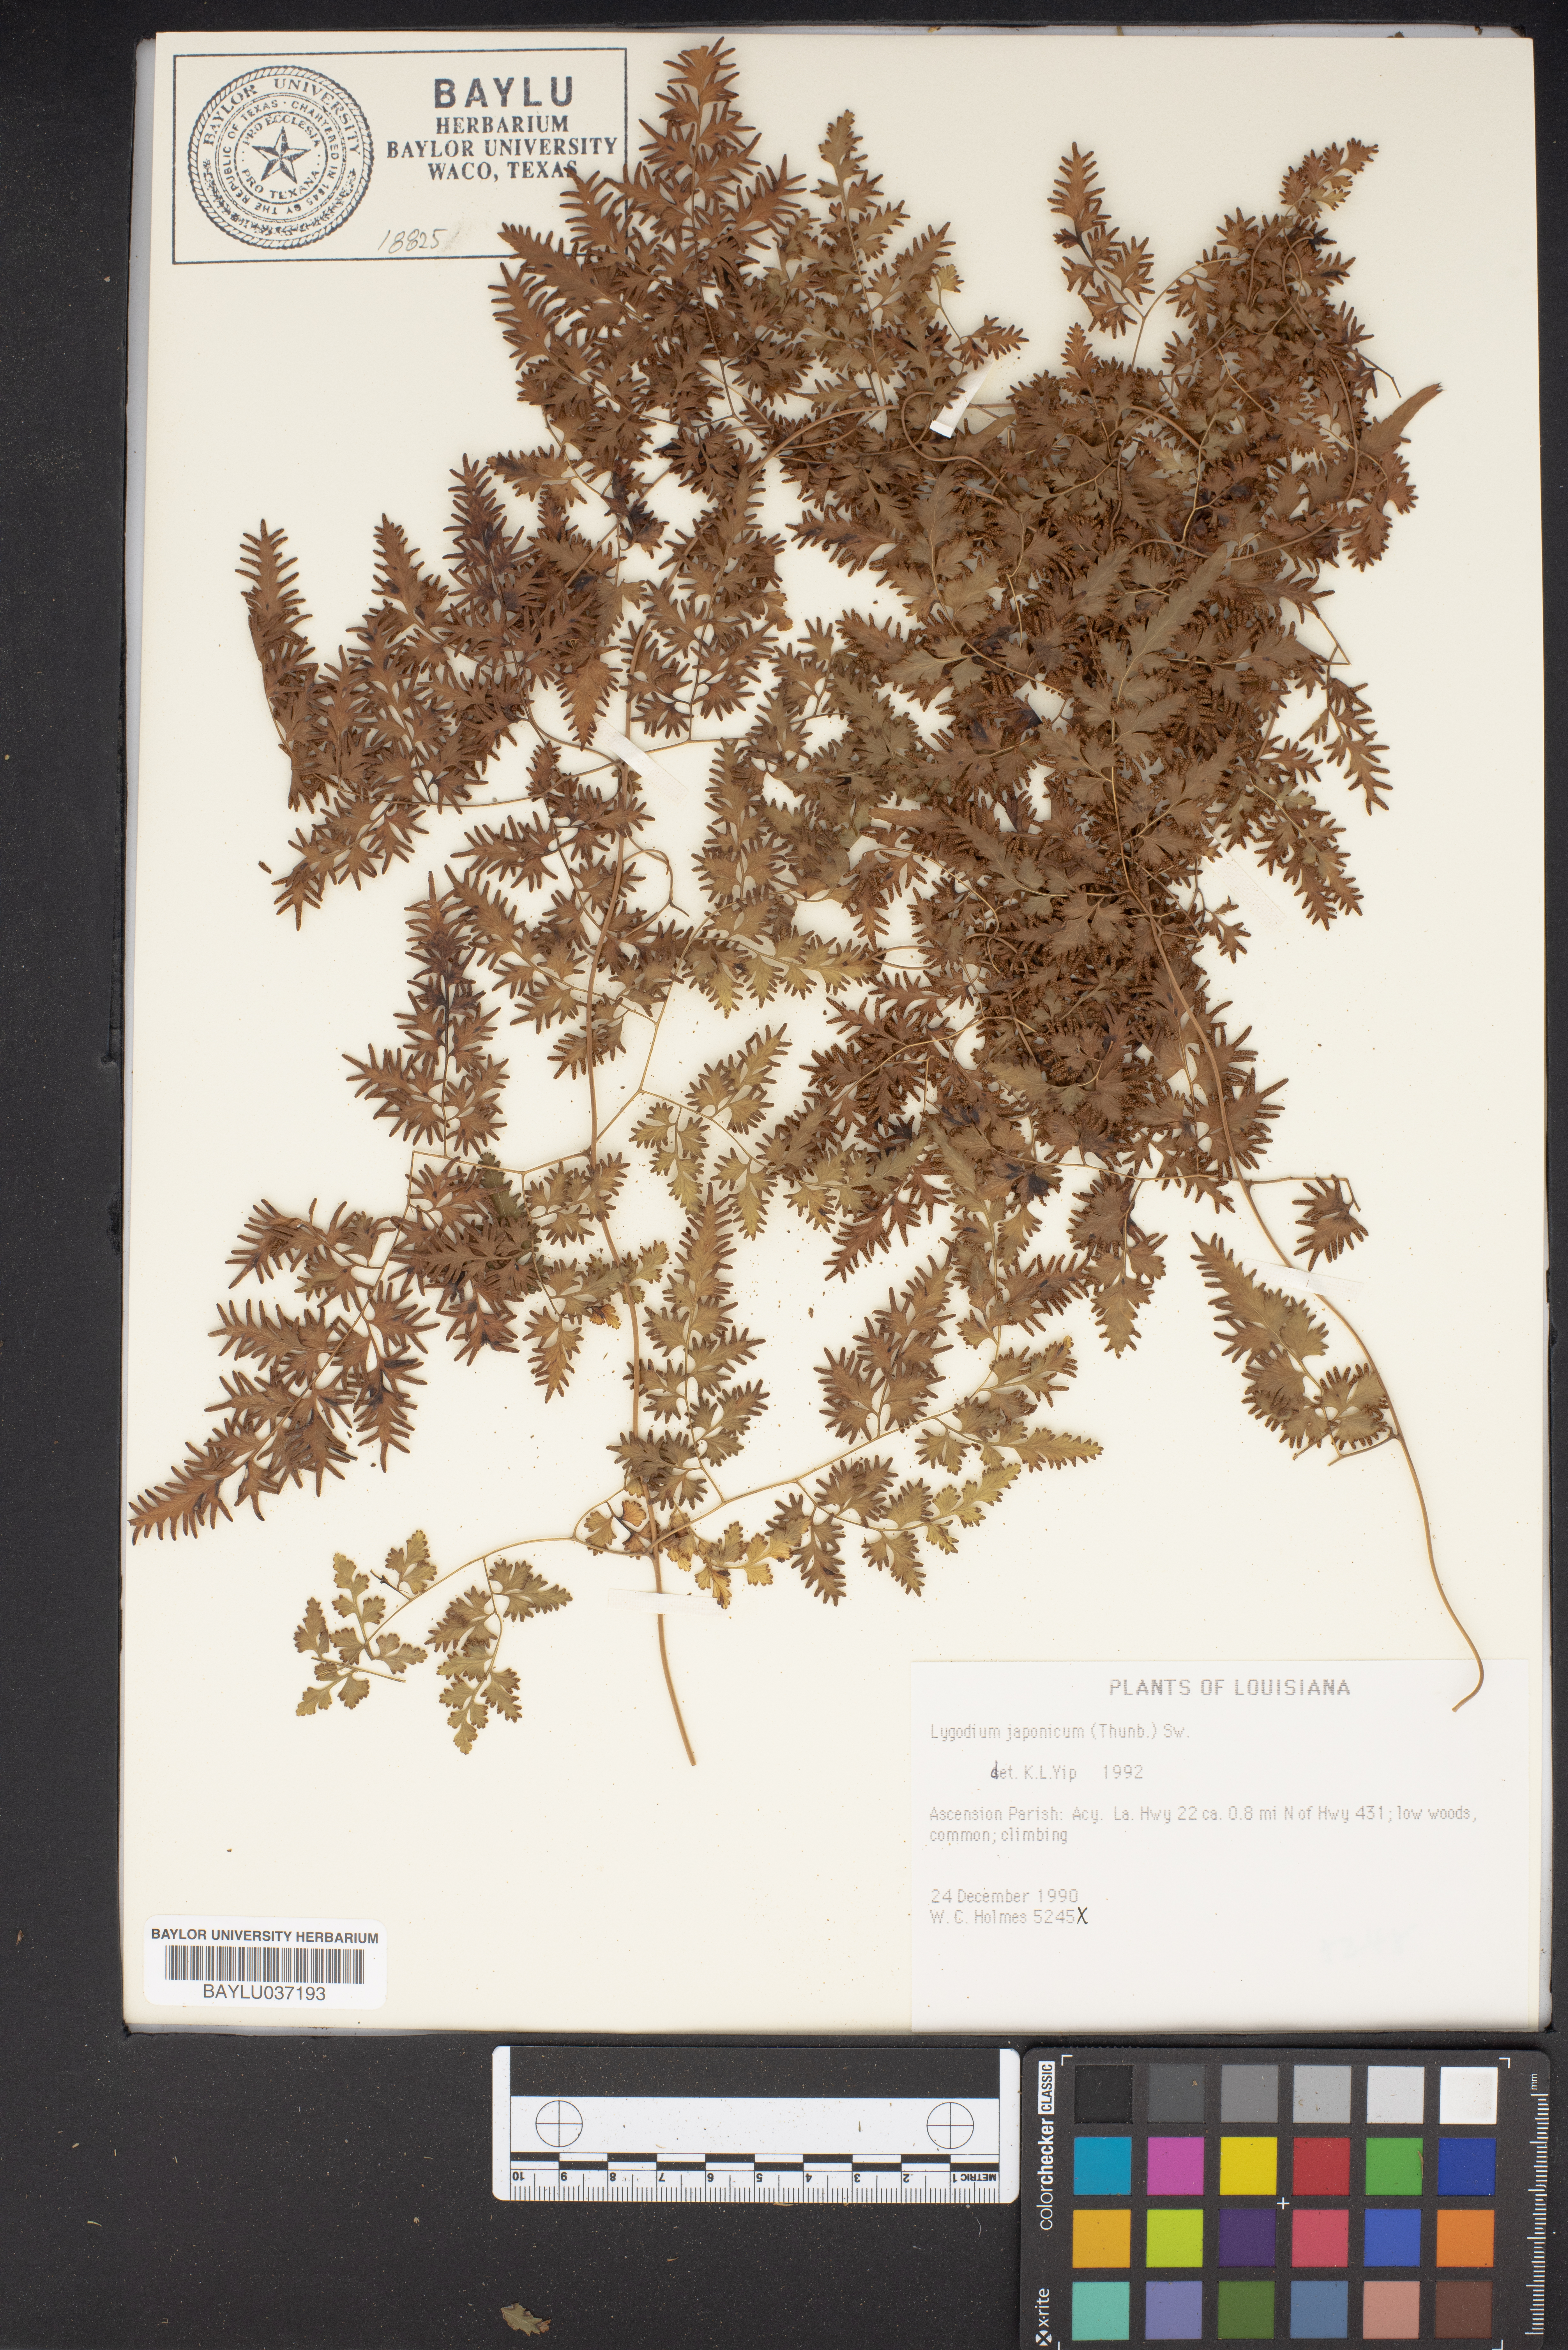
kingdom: Plantae
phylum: Tracheophyta
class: Polypodiopsida
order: Schizaeales
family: Lygodiaceae
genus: Lygodium
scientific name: Lygodium japonicum
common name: Japanese climbing fern
